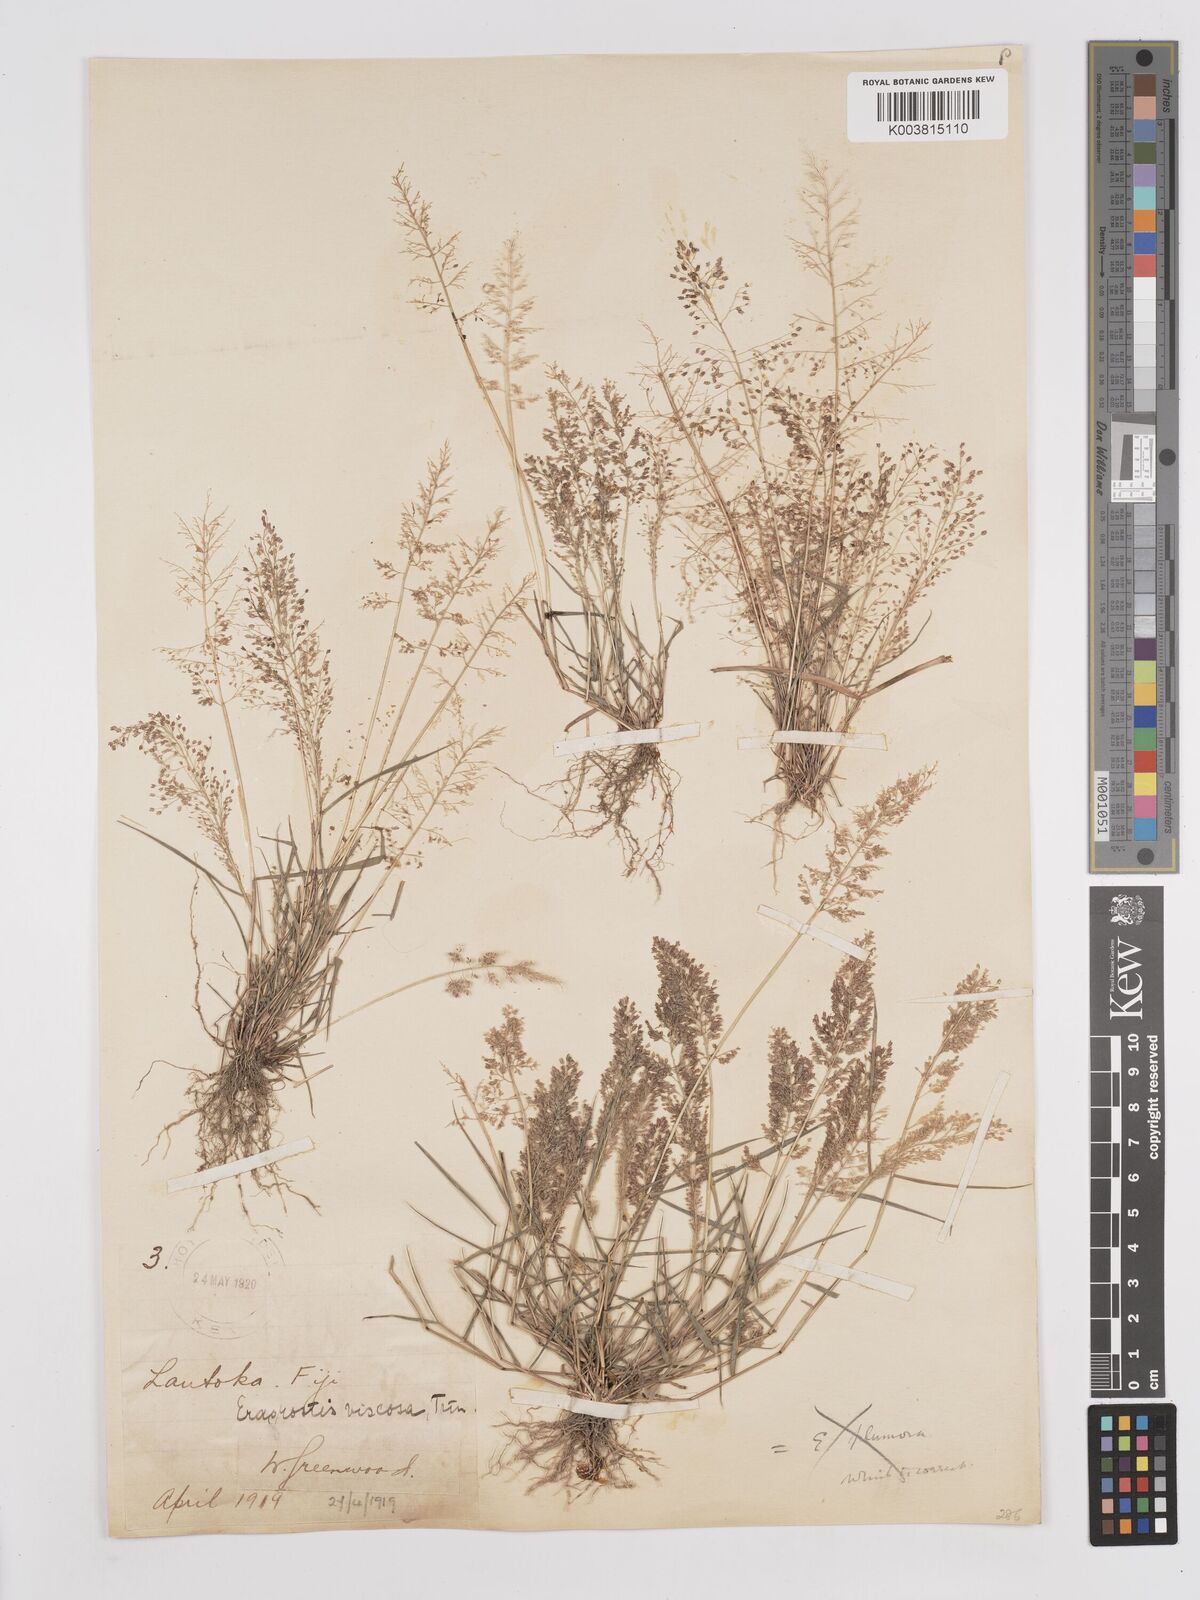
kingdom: Plantae
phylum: Tracheophyta
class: Liliopsida
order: Poales
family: Poaceae
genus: Eragrostis
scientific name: Eragrostis tenella
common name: Japanese lovegrass
